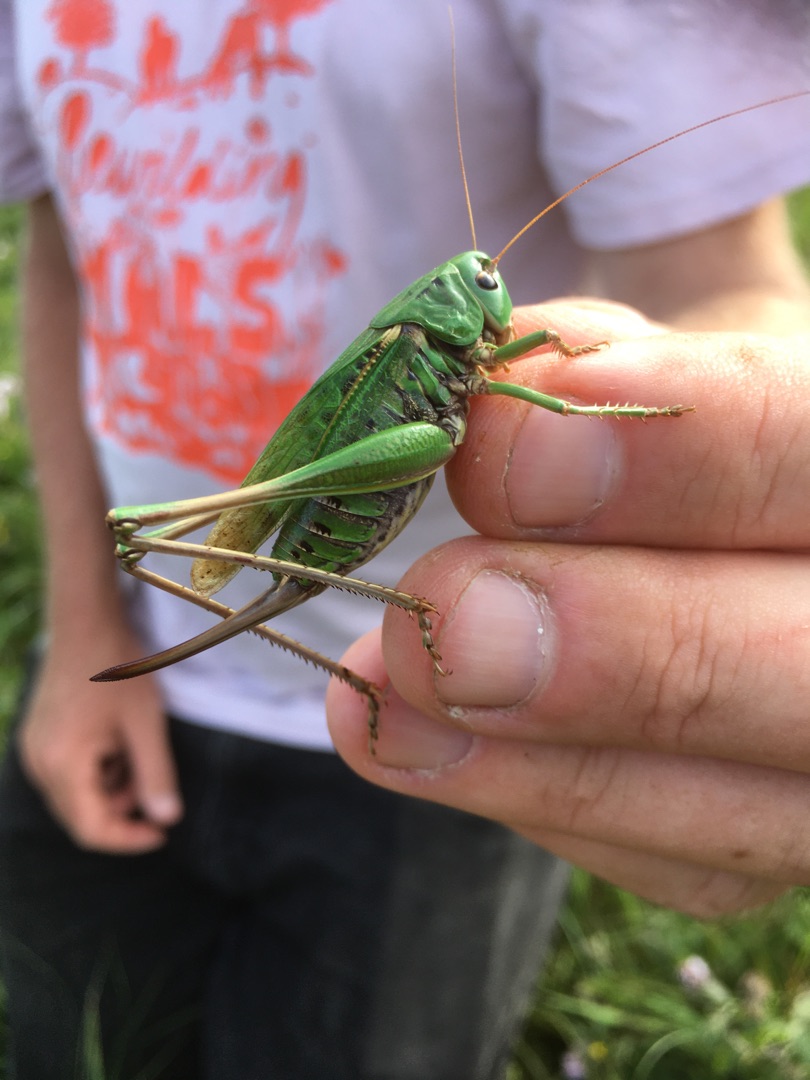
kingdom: Animalia
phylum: Arthropoda
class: Insecta
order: Orthoptera
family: Tettigoniidae
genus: Decticus
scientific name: Decticus verrucivorus
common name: Vortebider
